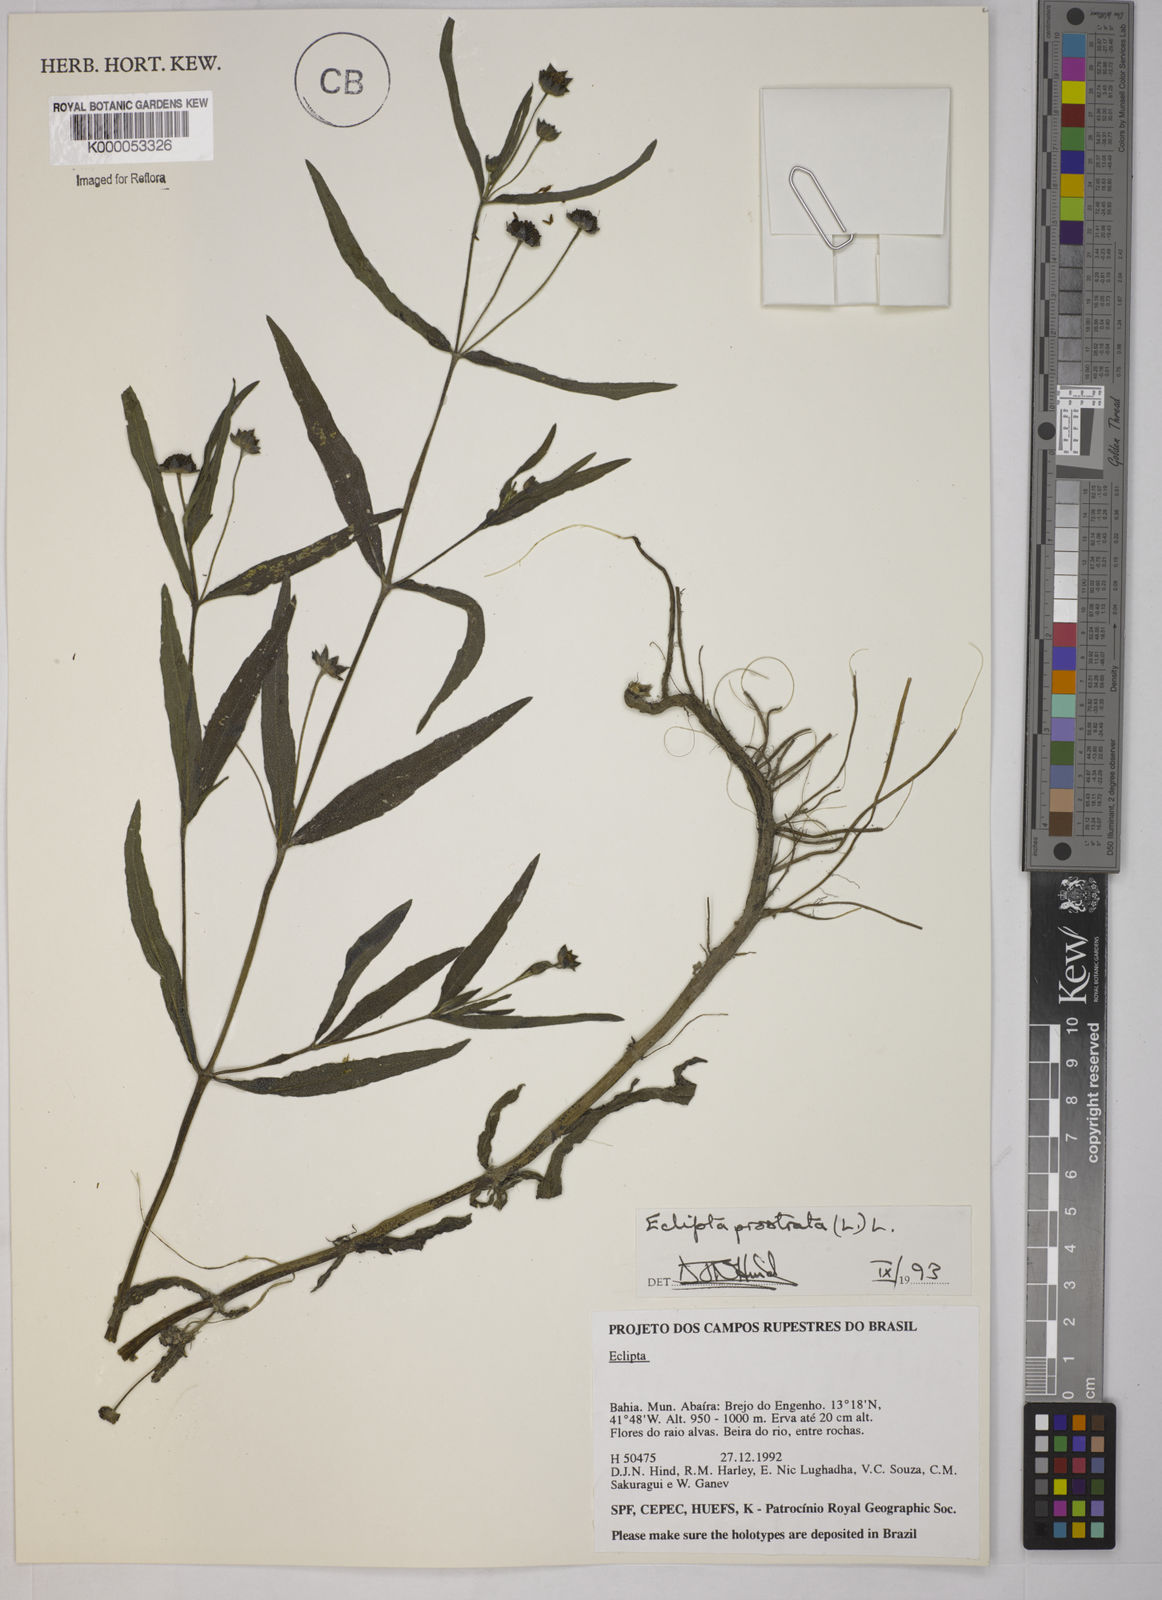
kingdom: Plantae
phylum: Tracheophyta
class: Magnoliopsida
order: Asterales
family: Asteraceae
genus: Eclipta
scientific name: Eclipta prostrata
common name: False daisy
